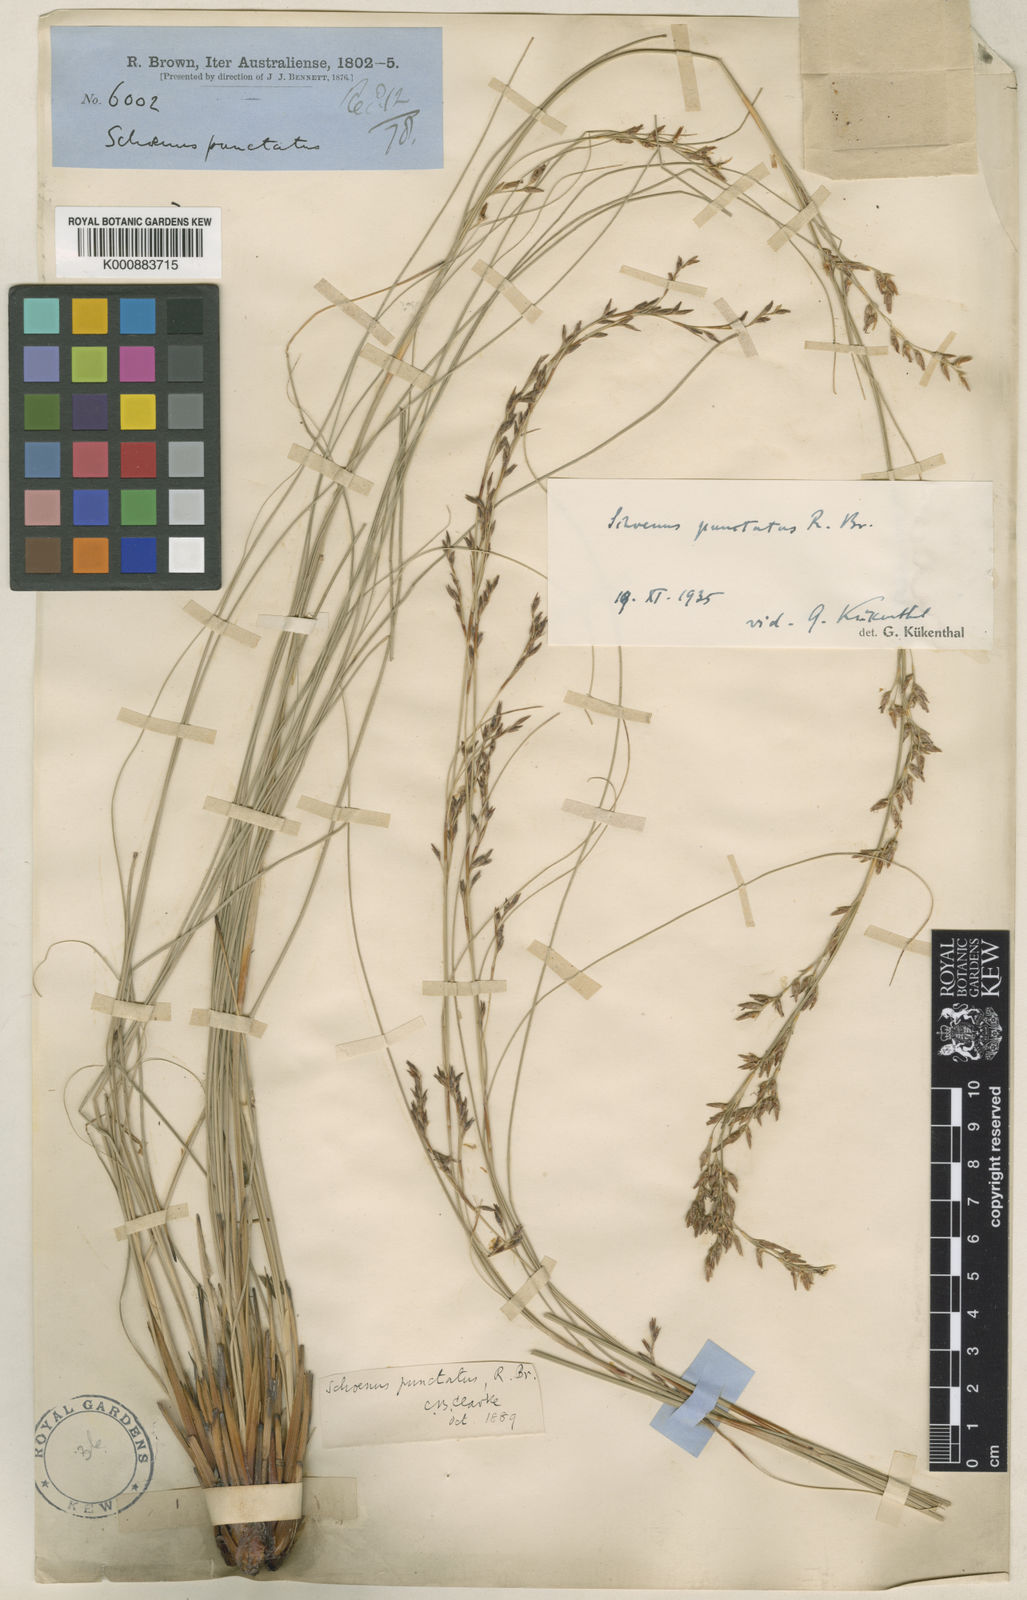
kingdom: Plantae
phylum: Tracheophyta
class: Liliopsida
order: Poales
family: Cyperaceae
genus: Schoenus
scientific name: Schoenus punctatus
